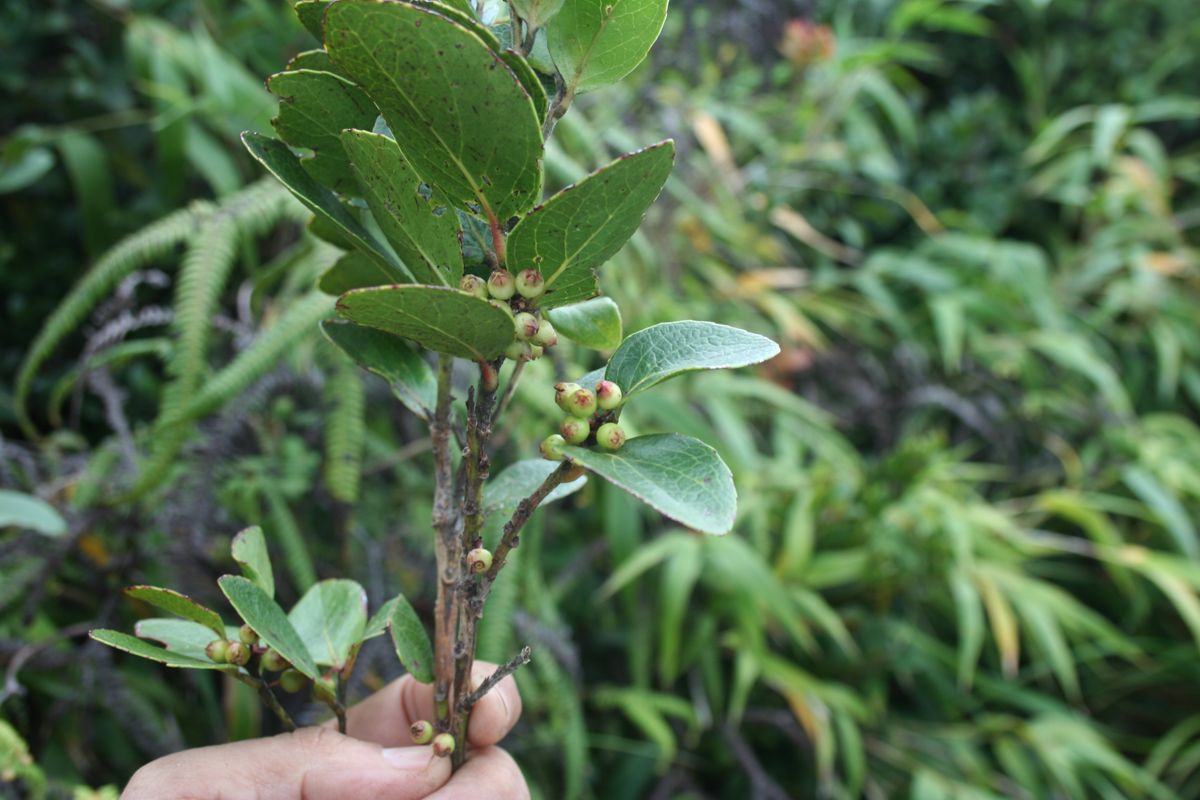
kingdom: Plantae
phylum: Tracheophyta
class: Magnoliopsida
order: Ericales
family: Ericaceae
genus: Vaccinium
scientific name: Vaccinium selerianum
